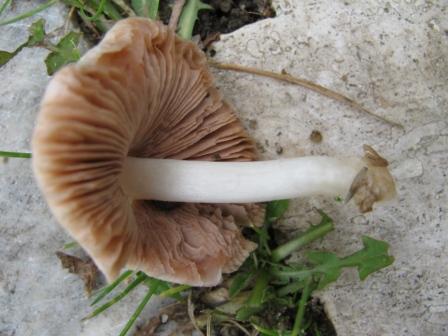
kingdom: Fungi
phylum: Basidiomycota
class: Agaricomycetes
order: Agaricales
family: Pluteaceae
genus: Volvariella
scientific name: Volvariella murinella
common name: musegrå posesvamp
